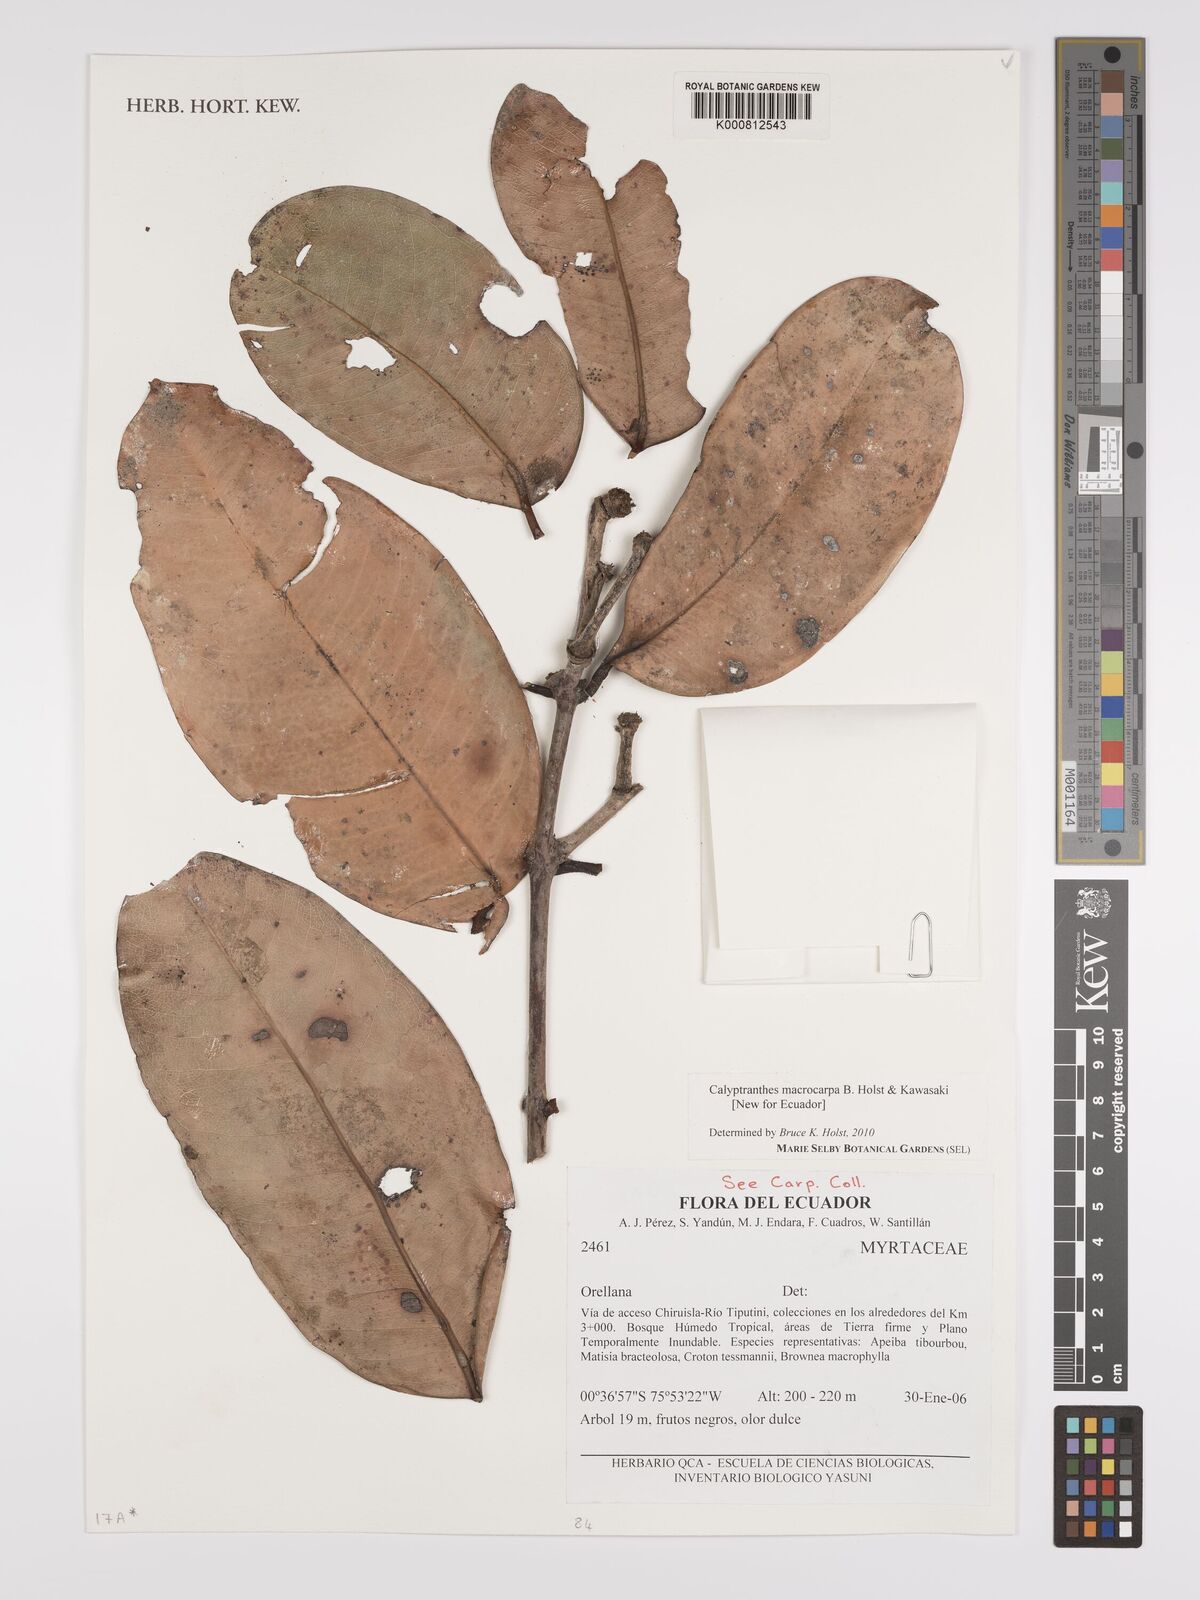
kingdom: Plantae
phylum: Tracheophyta
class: Magnoliopsida
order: Myrtales
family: Myrtaceae
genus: Myrcia
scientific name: Myrcia neomacrocarpa
